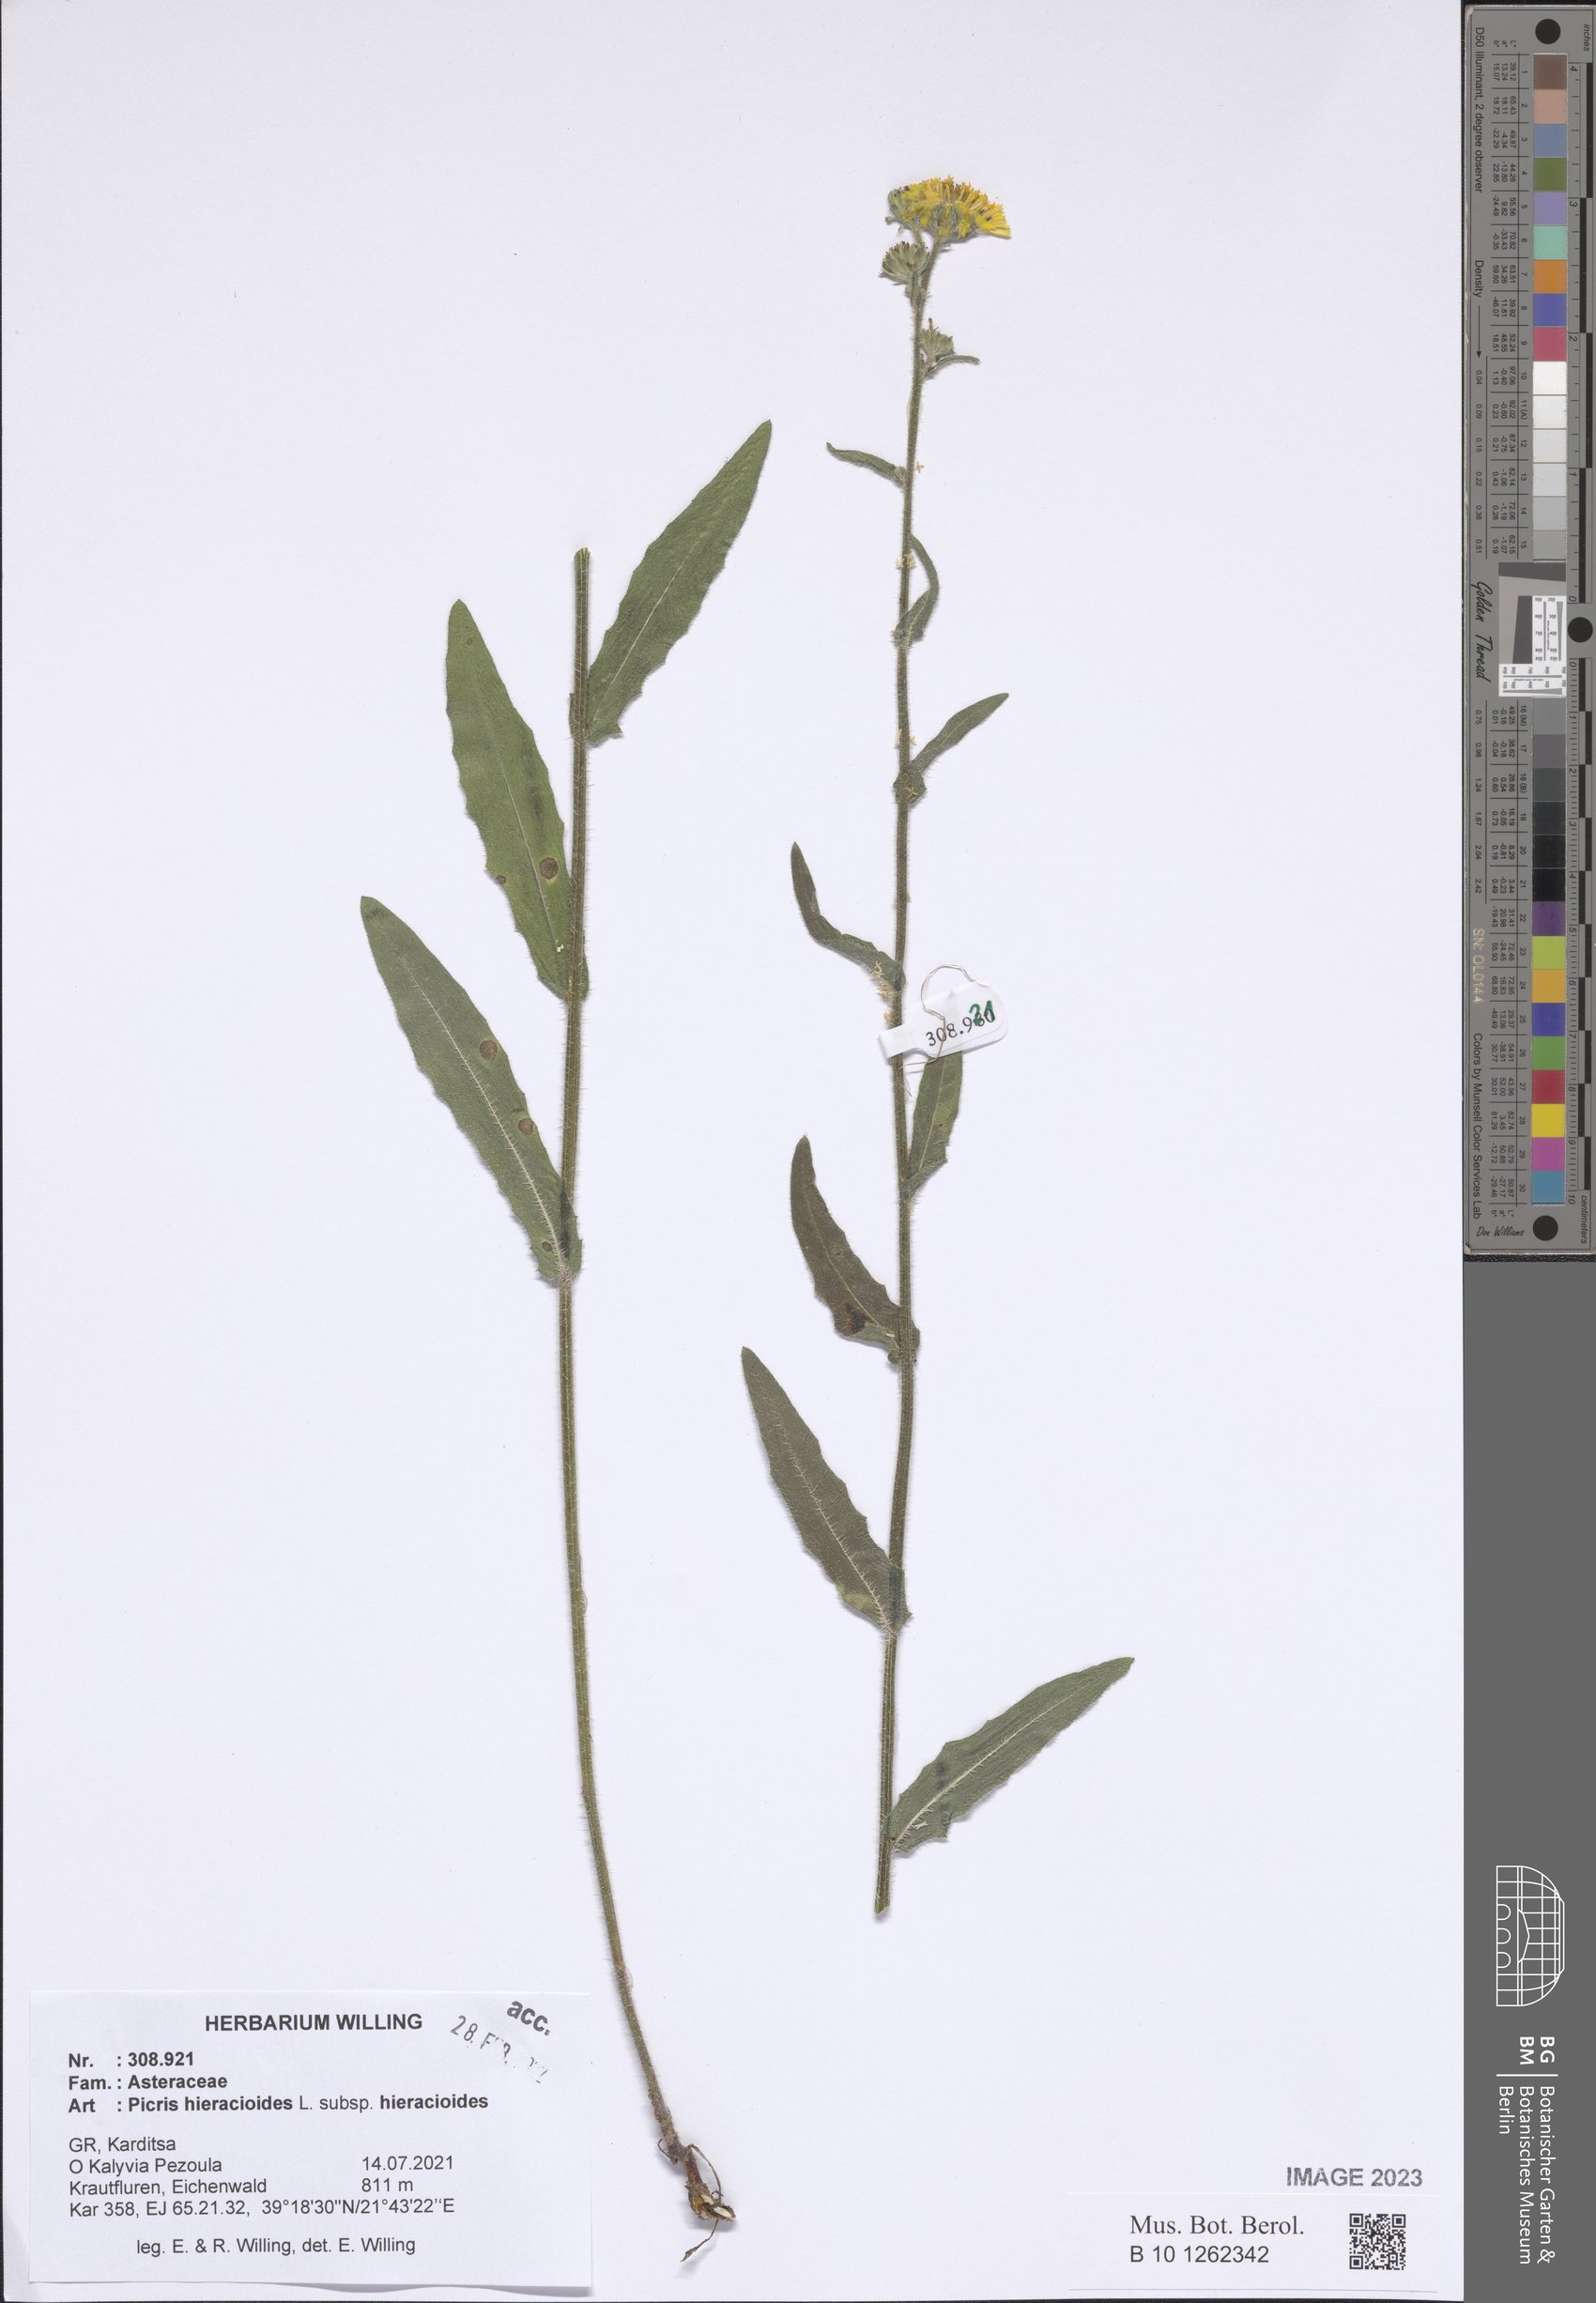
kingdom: Plantae
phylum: Tracheophyta
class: Magnoliopsida
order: Asterales
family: Asteraceae
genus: Picris
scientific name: Picris hieracioides
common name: Hawkweed oxtongue
